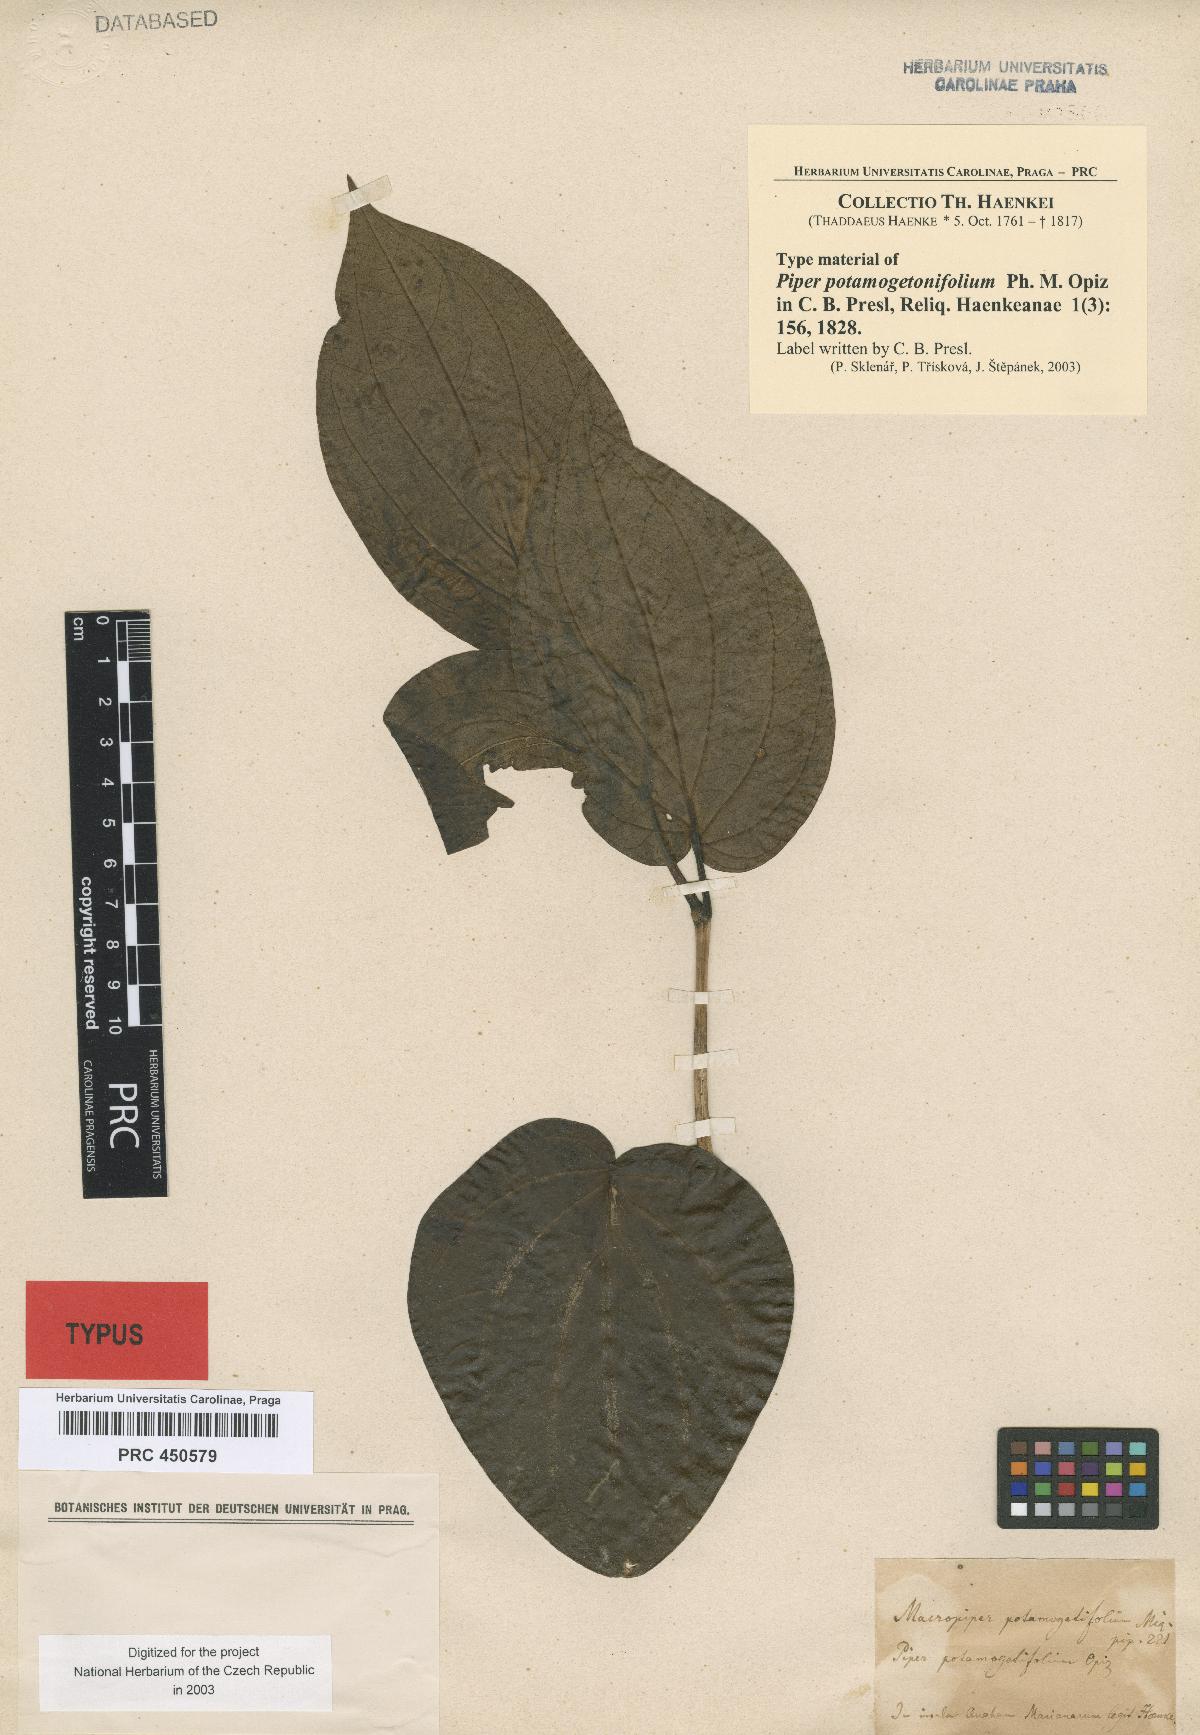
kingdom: Plantae
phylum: Tracheophyta
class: Magnoliopsida
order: Piperales
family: Piperaceae
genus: Piper
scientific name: Piper betle
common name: Betel pepper
